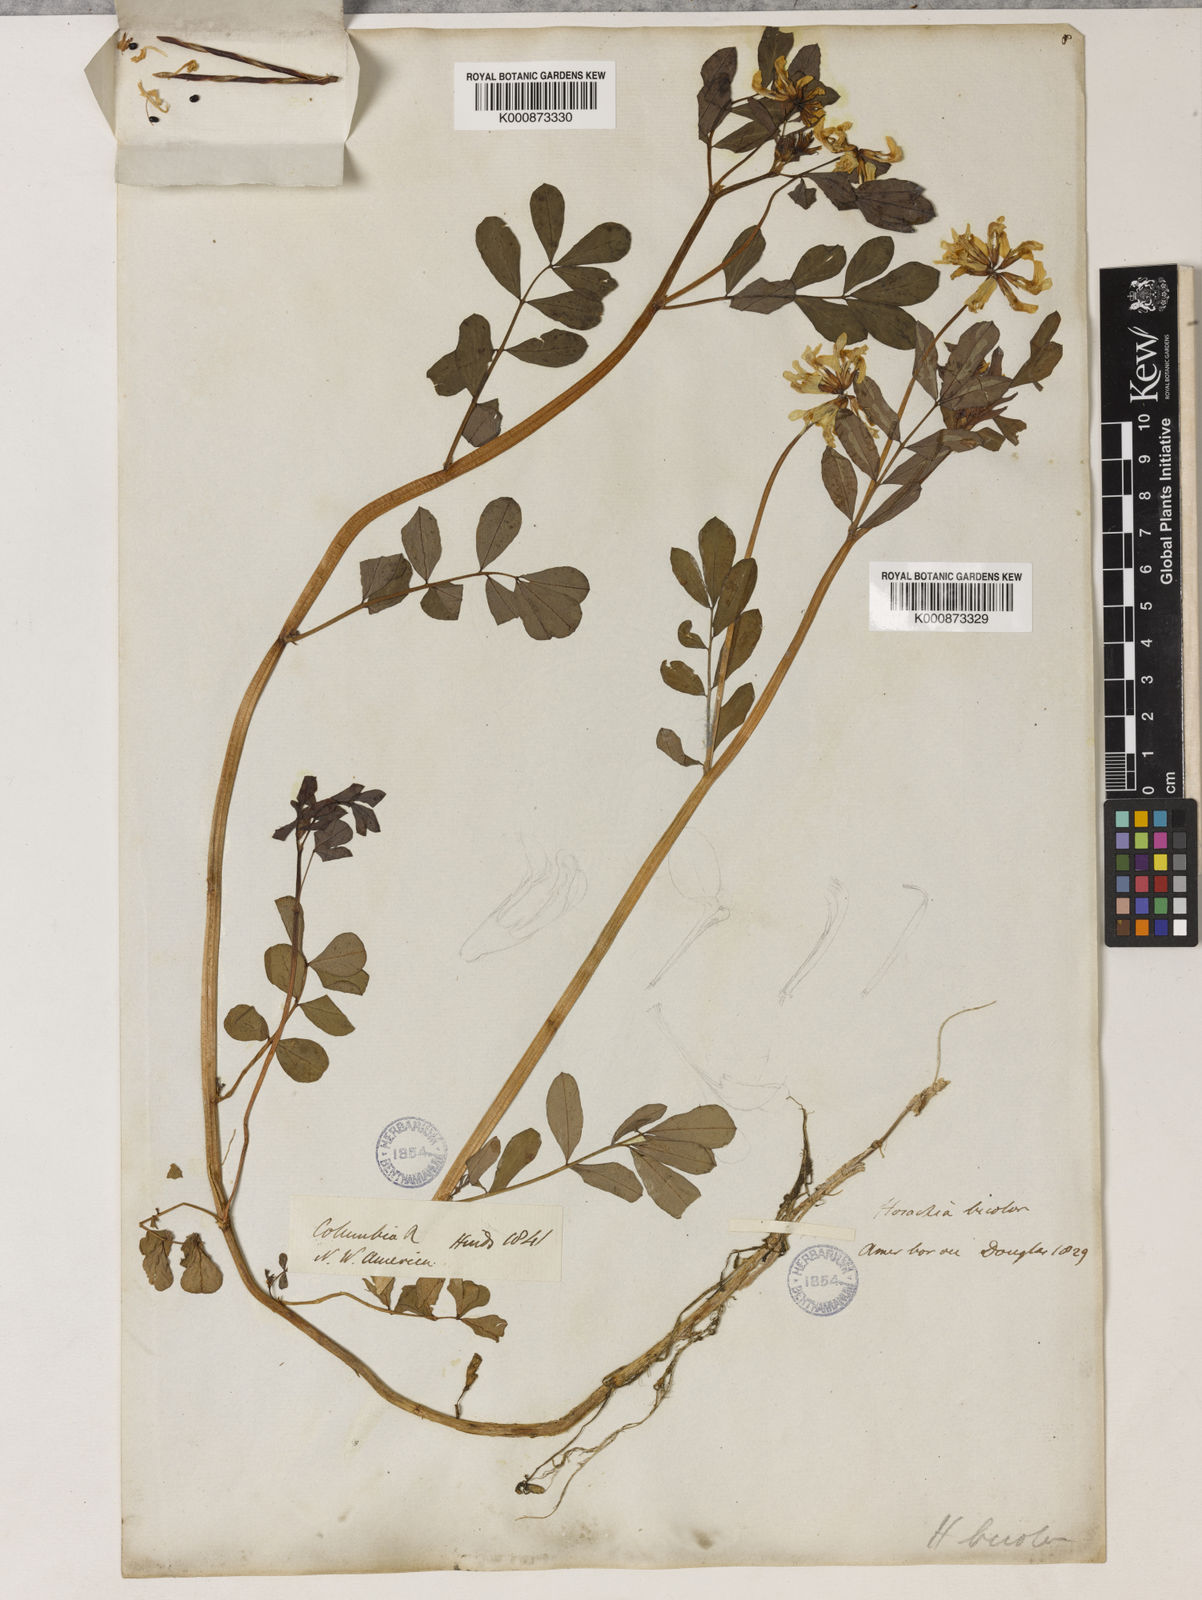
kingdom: Plantae
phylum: Tracheophyta
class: Magnoliopsida
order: Fabales
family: Fabaceae
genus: Hosackia
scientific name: Hosackia pinnata
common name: Bog bird's-foot trefoil
